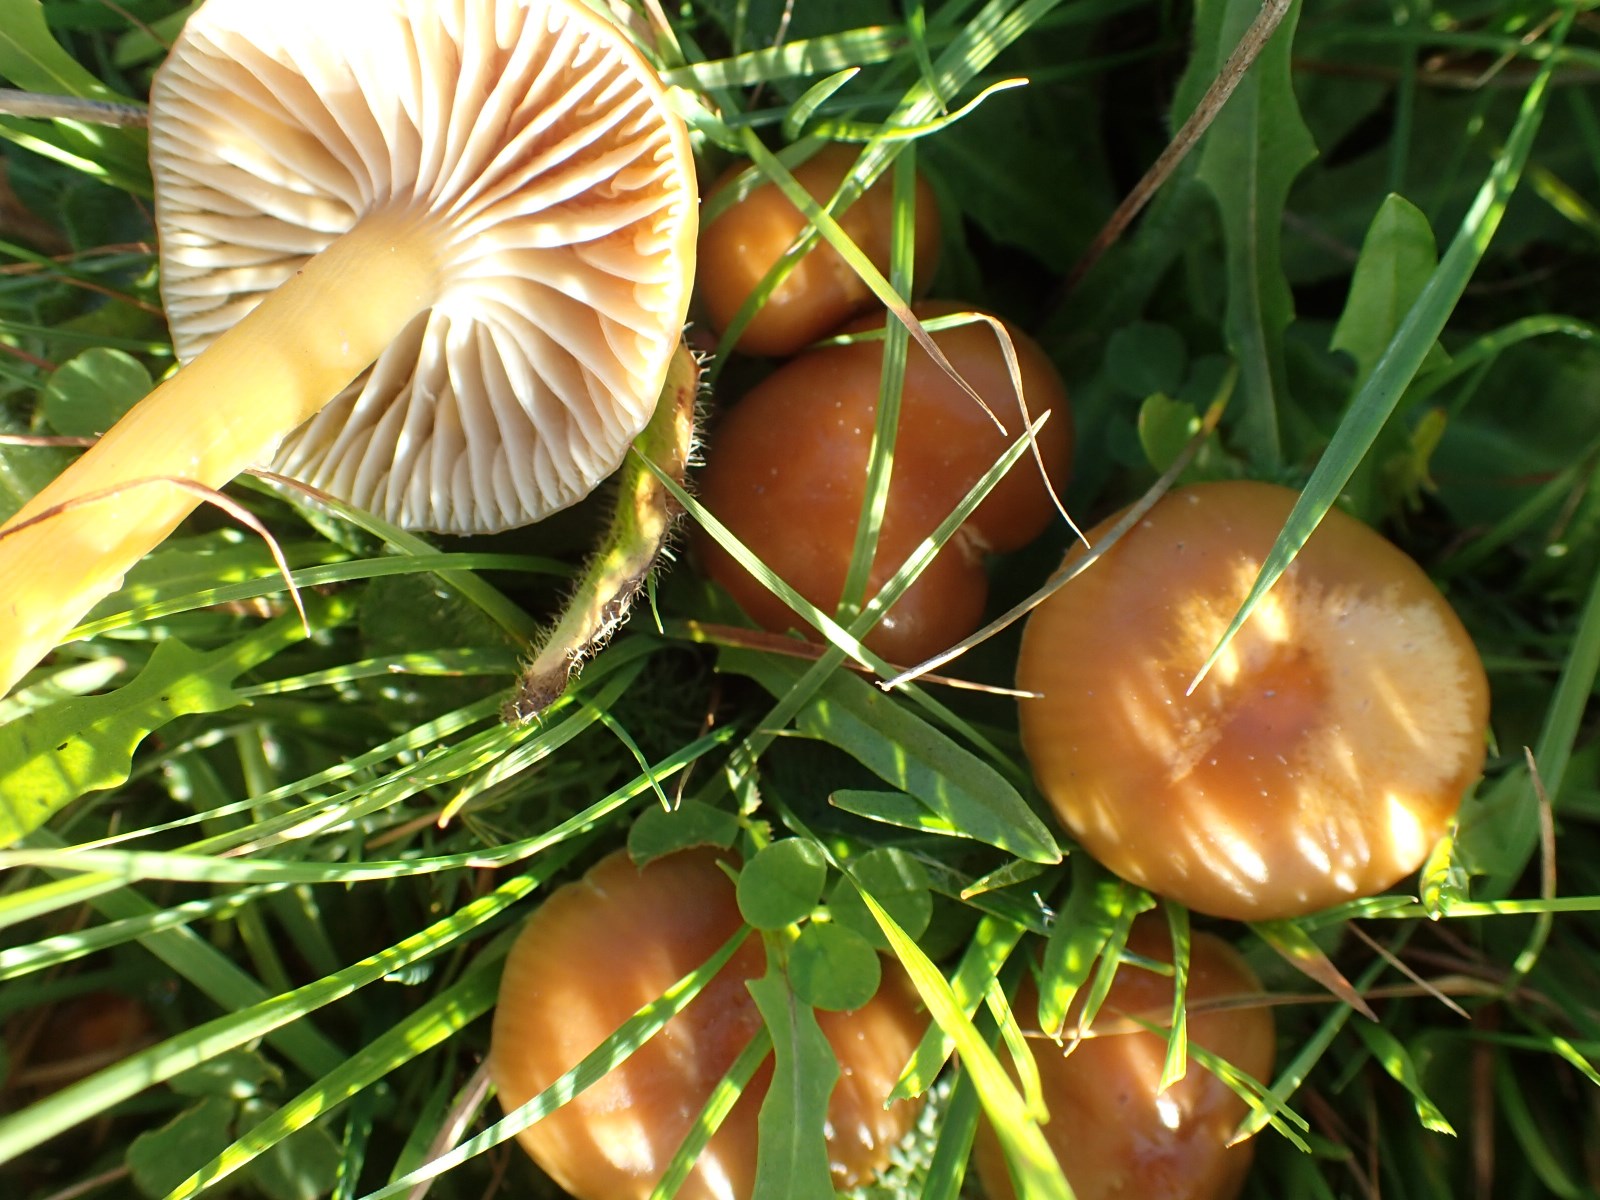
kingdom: Fungi
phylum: Basidiomycota
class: Agaricomycetes
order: Agaricales
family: Hygrophoraceae
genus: Gliophorus
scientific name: Gliophorus laetus
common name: brusk-vokshat
